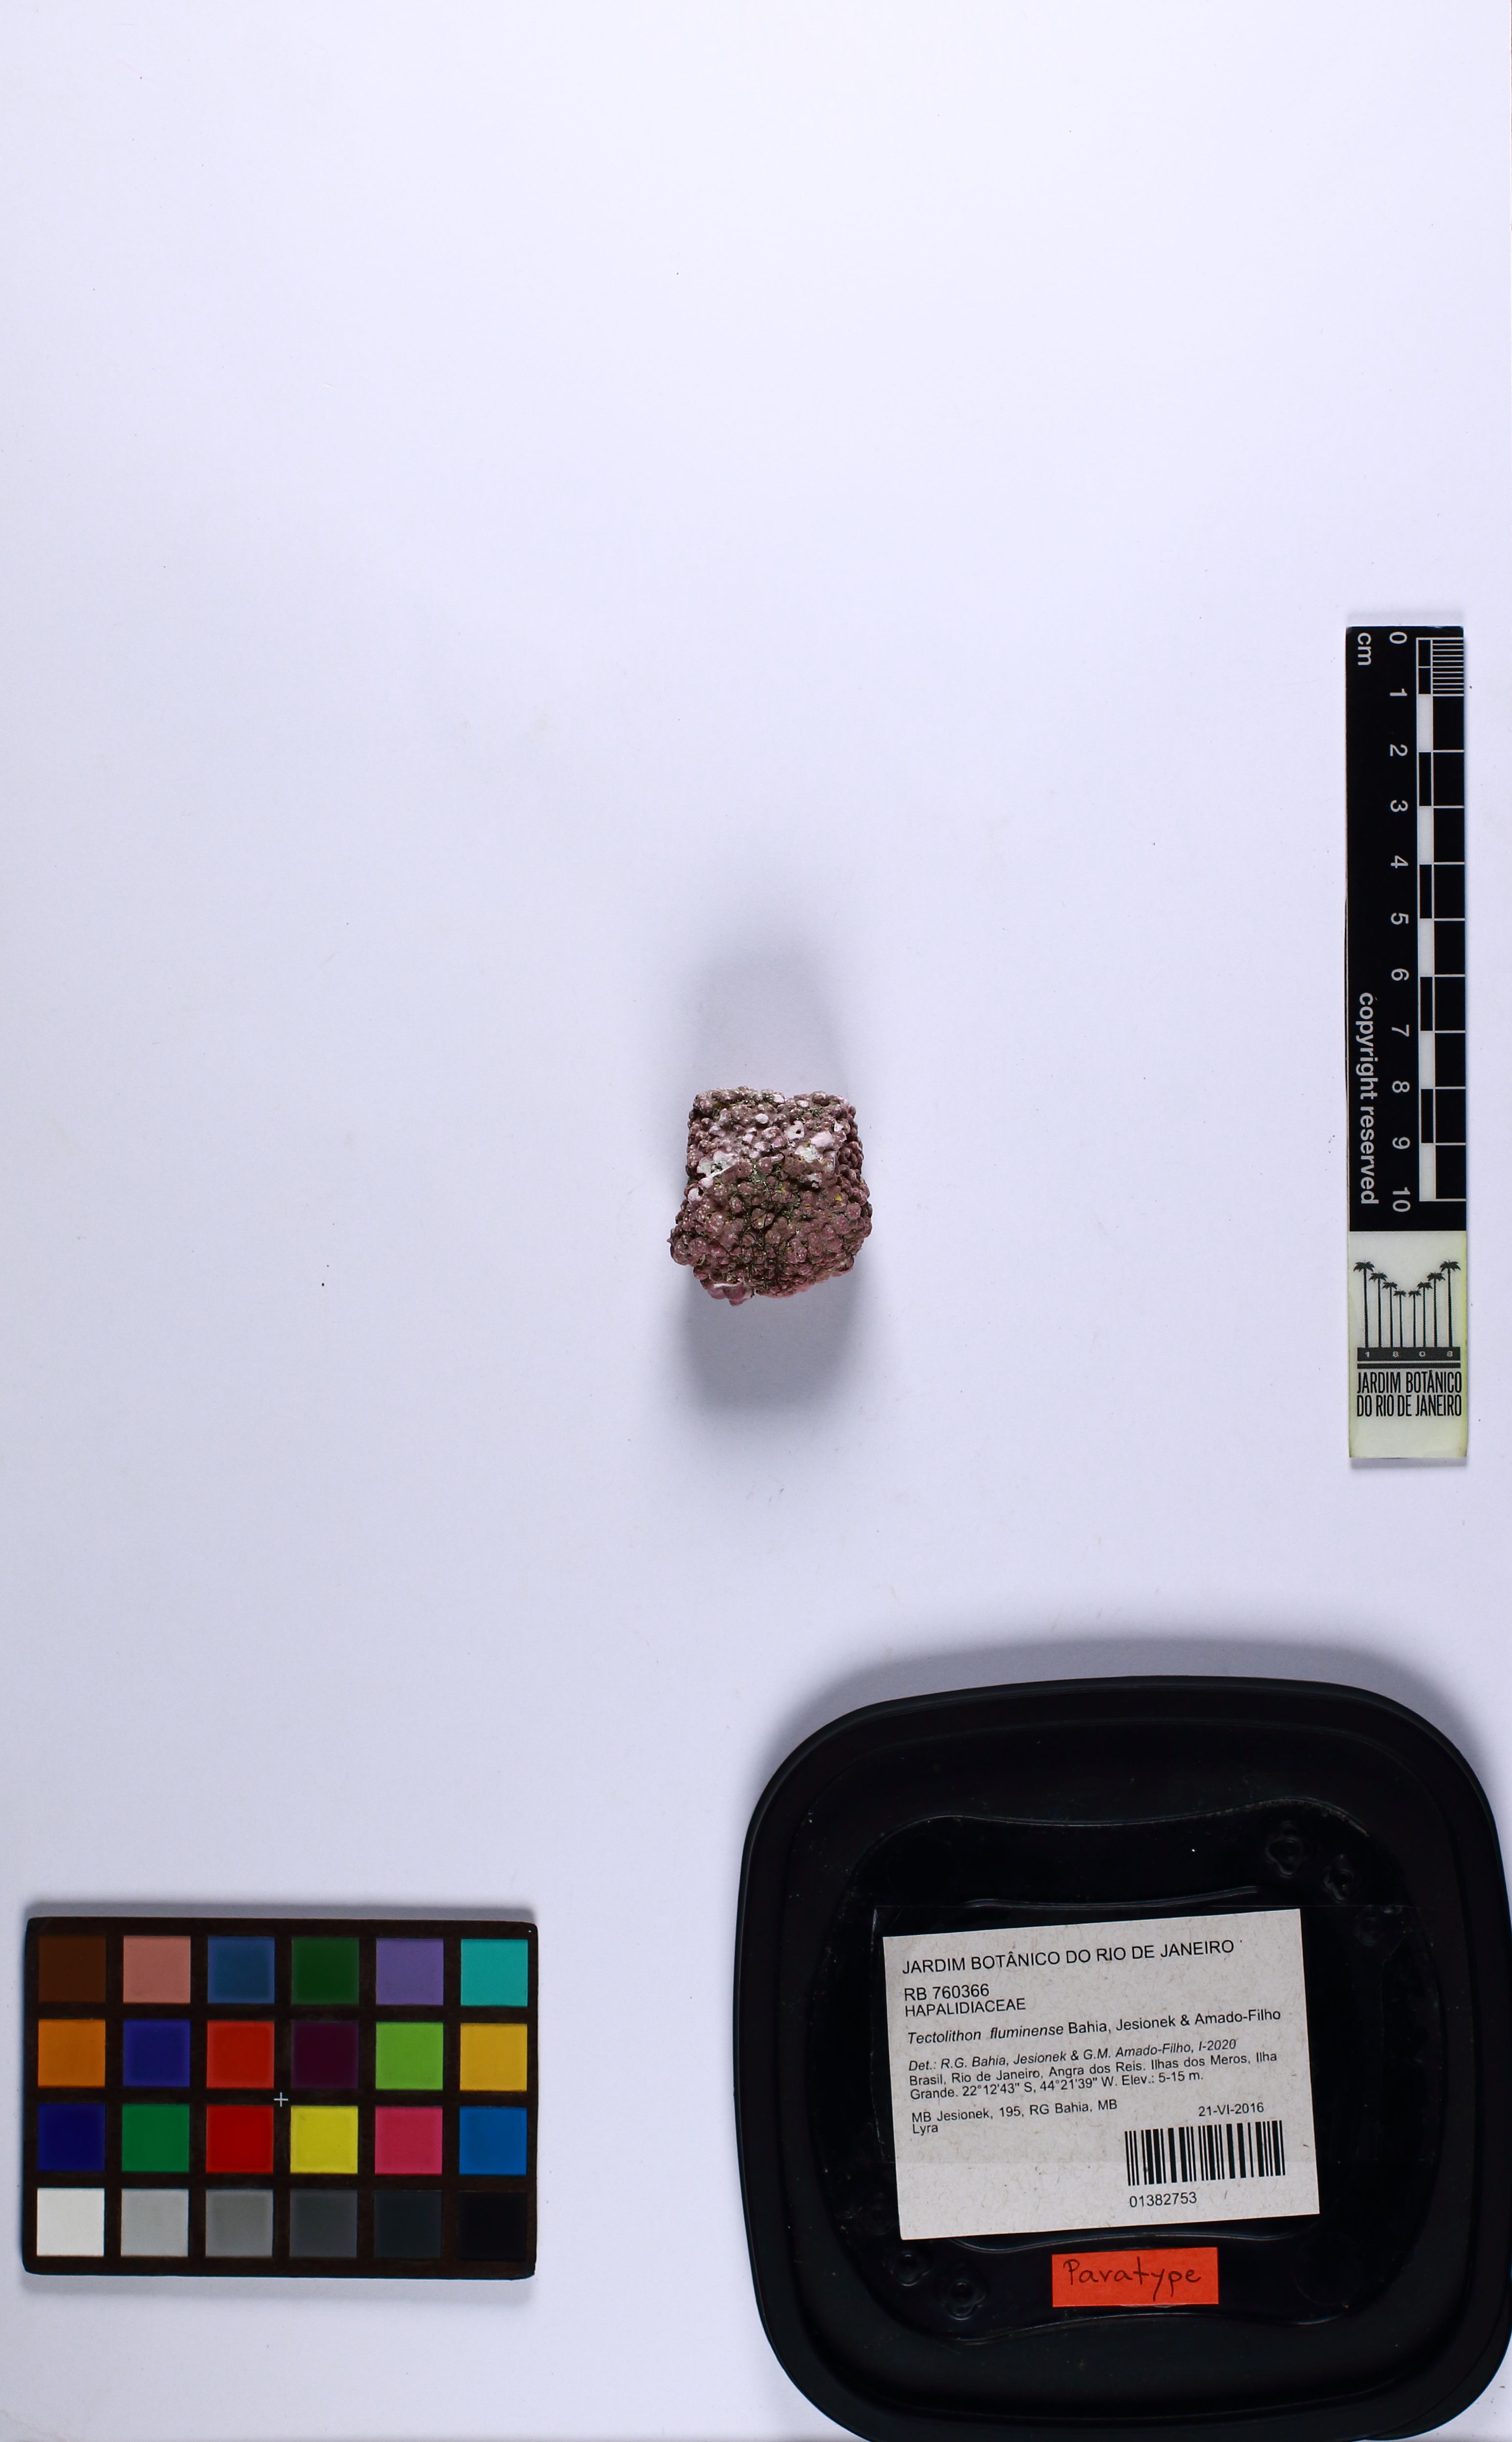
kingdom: Plantae
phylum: Rhodophyta
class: Florideophyceae
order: Corallinales
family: Hapalidiaceae
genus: Tectolithon
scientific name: Tectolithon fluminense
